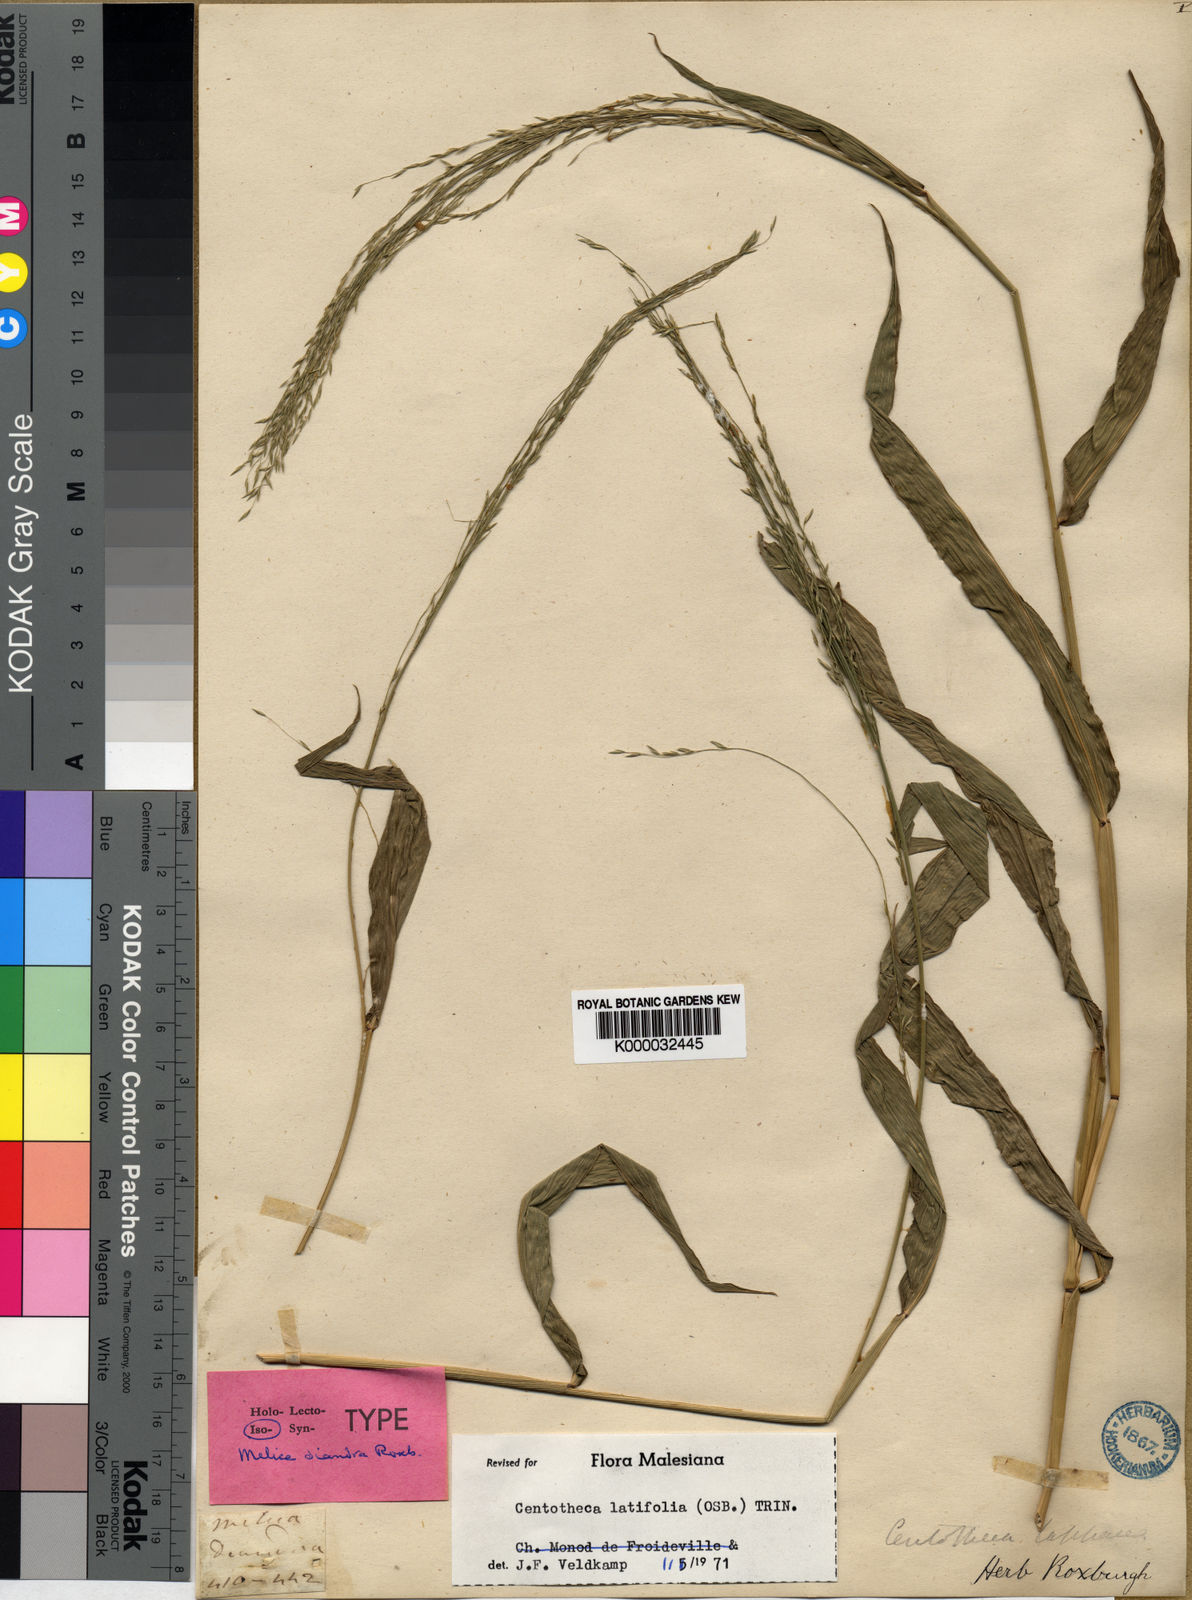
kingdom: Plantae
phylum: Tracheophyta
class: Liliopsida
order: Poales
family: Poaceae
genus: Centotheca
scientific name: Centotheca lappacea
